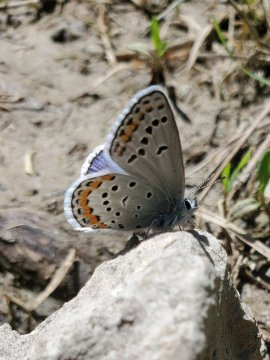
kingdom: Animalia
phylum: Arthropoda
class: Insecta
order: Lepidoptera
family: Lycaenidae
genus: Lycaeides
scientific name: Lycaeides melissa
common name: Melissa Blue
